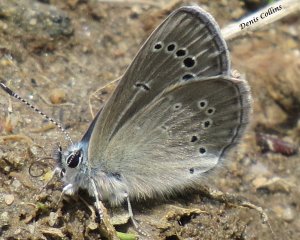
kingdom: Animalia
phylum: Arthropoda
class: Insecta
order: Lepidoptera
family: Lycaenidae
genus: Glaucopsyche
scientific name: Glaucopsyche lygdamus
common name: Silvery Blue
